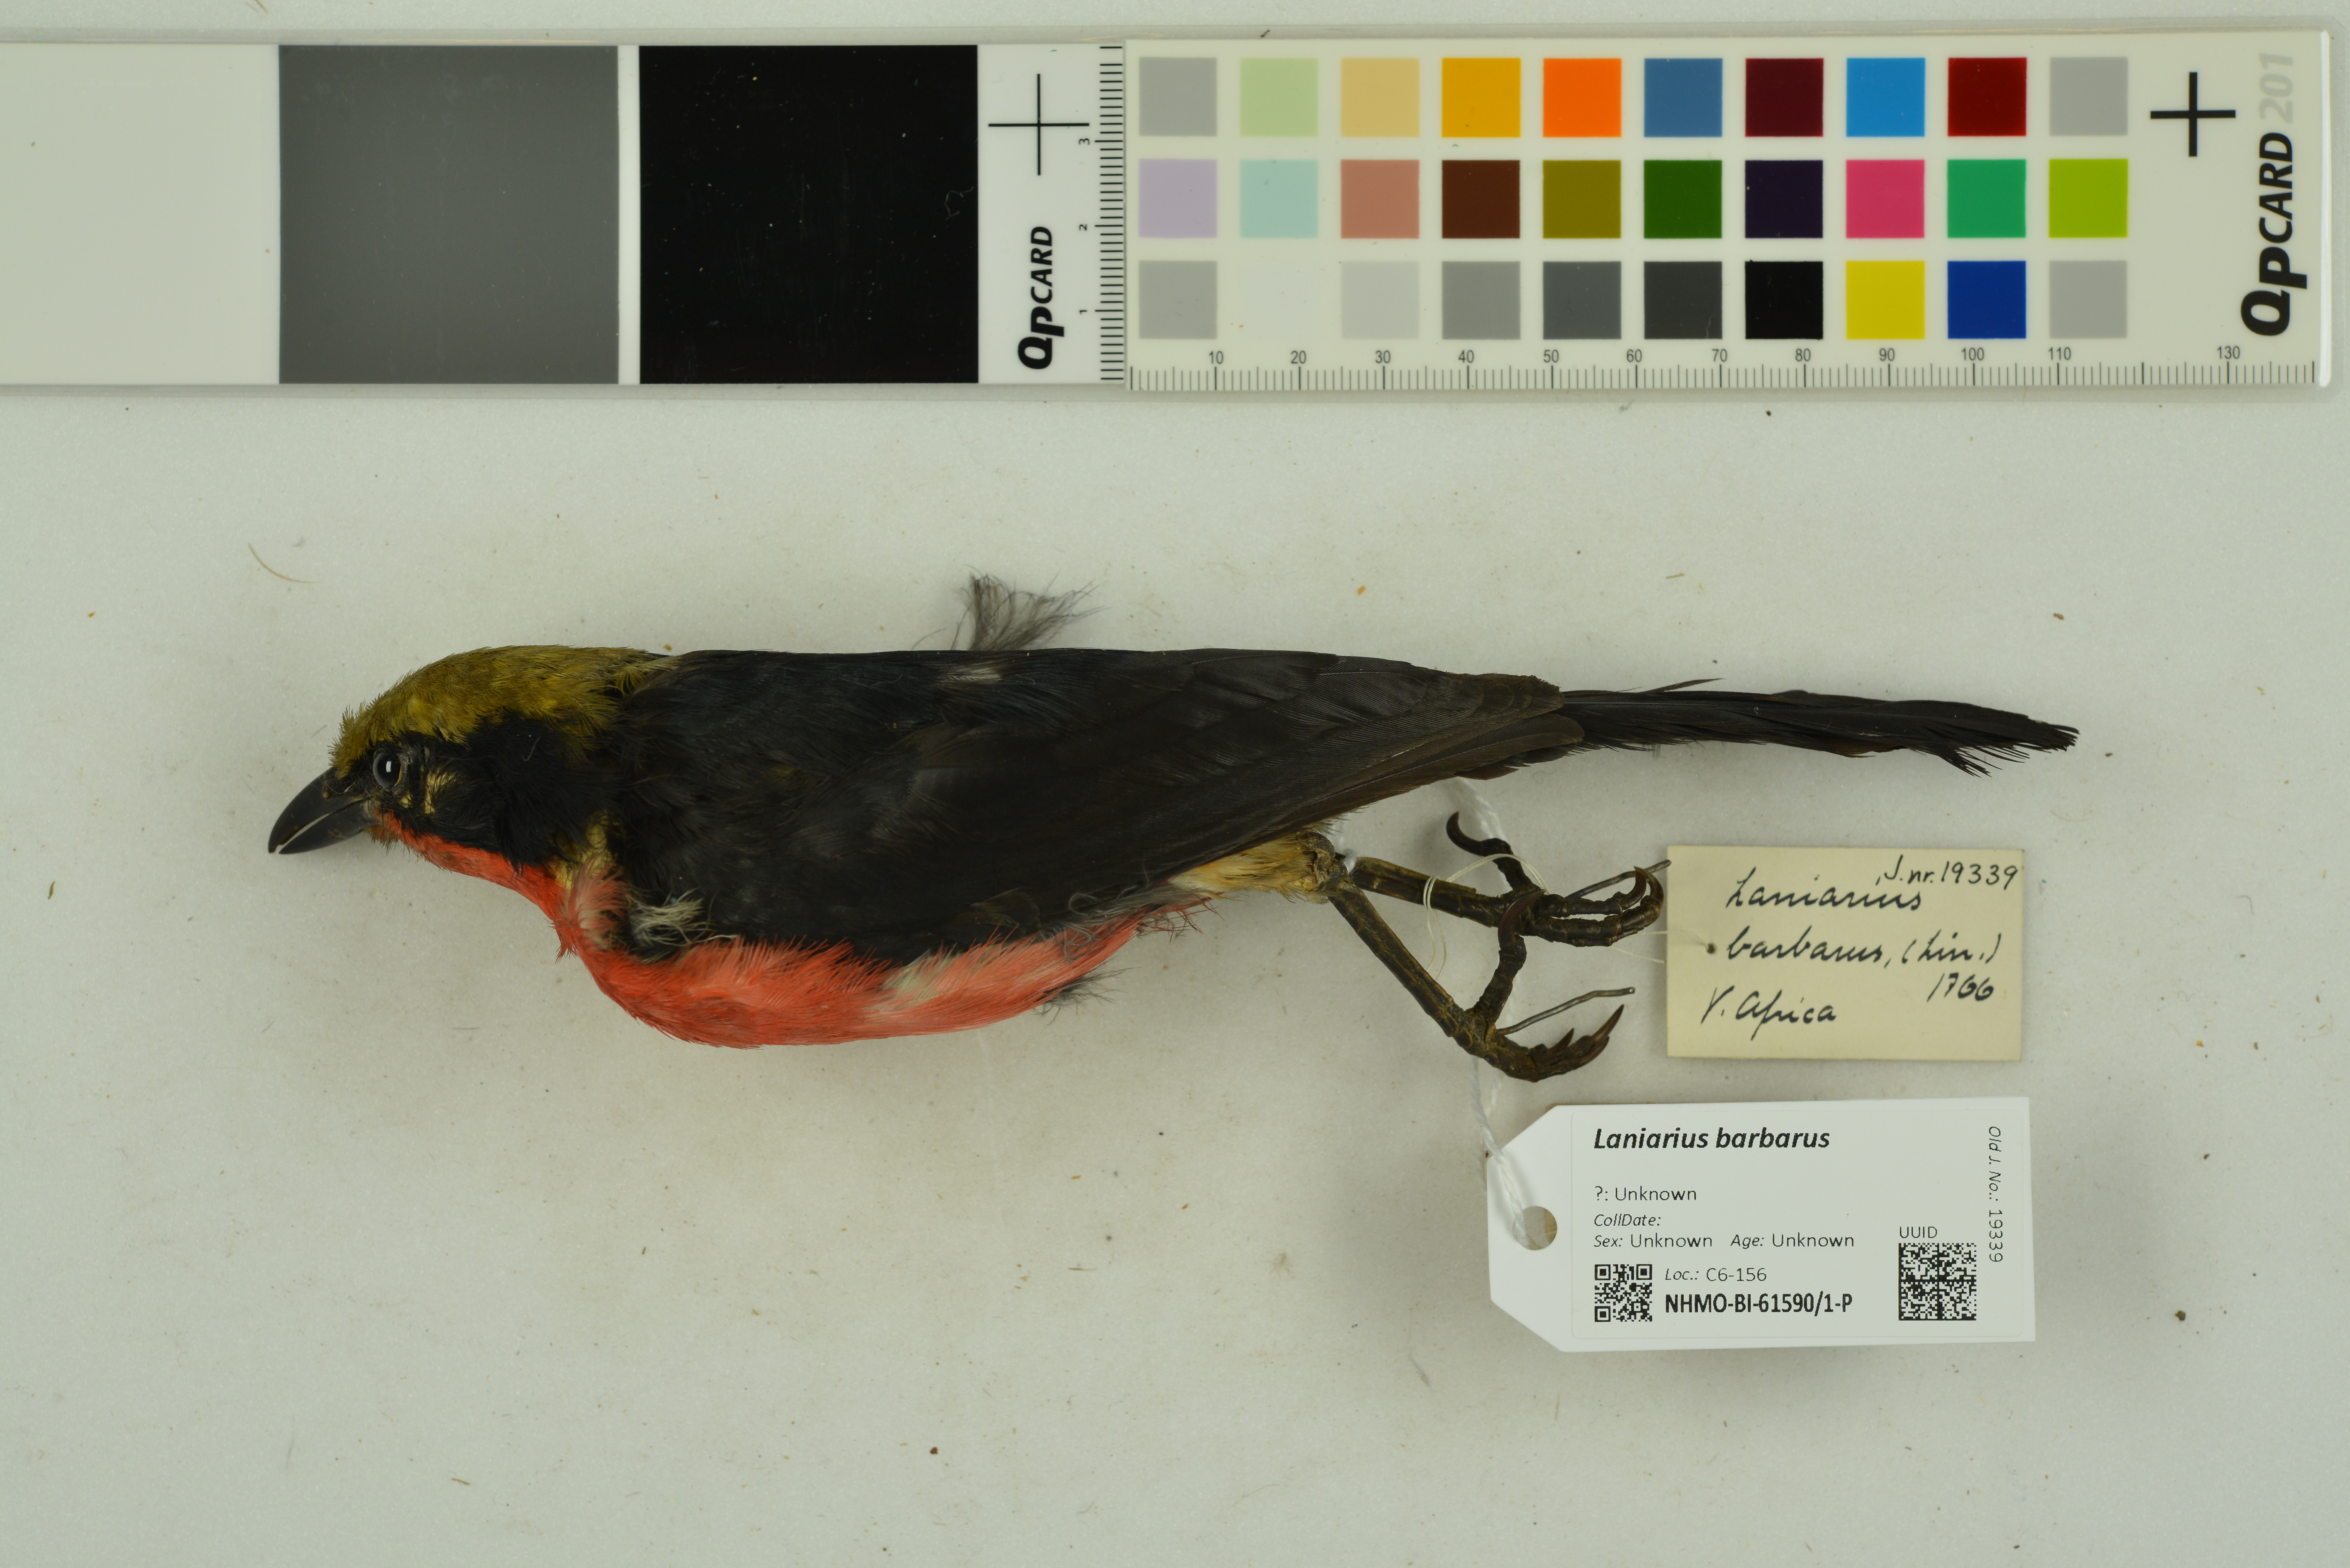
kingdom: Animalia
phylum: Chordata
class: Aves
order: Passeriformes
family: Malaconotidae
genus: Laniarius
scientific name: Laniarius barbarus
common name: Yellow-crowned gonolek
